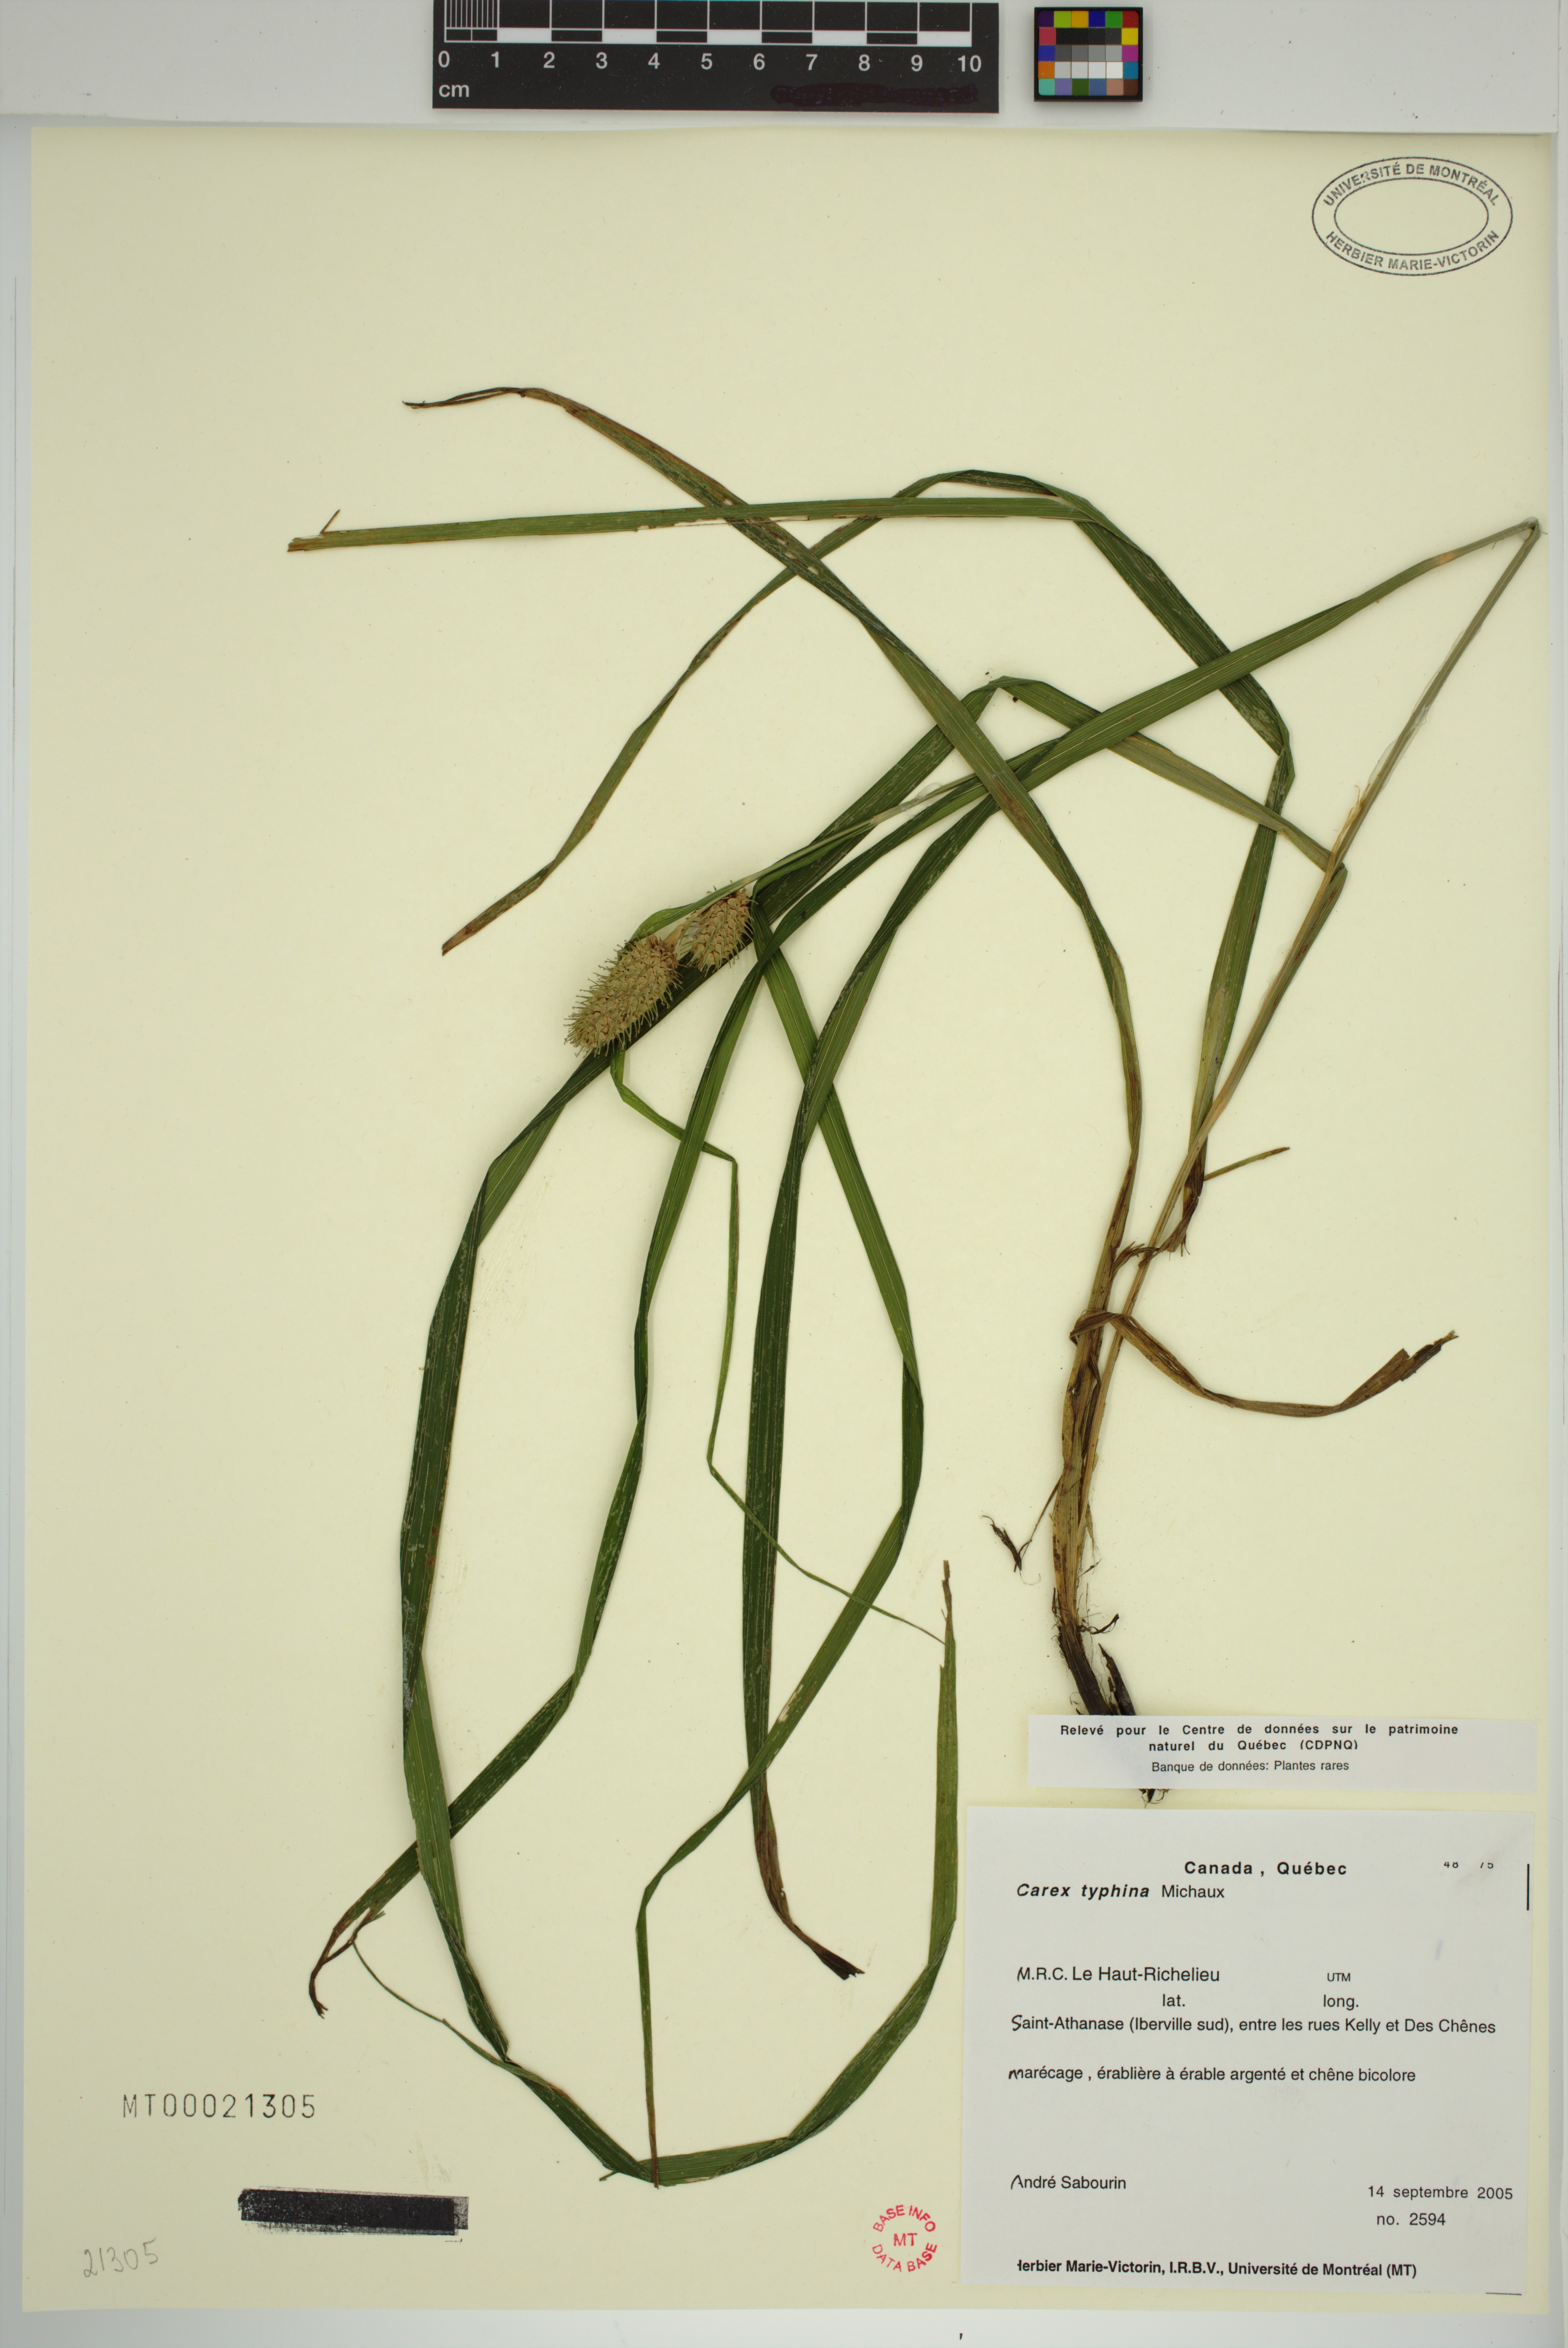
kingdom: Plantae
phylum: Tracheophyta
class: Liliopsida
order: Poales
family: Cyperaceae
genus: Carex
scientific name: Carex typhina
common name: Cattail sedge
